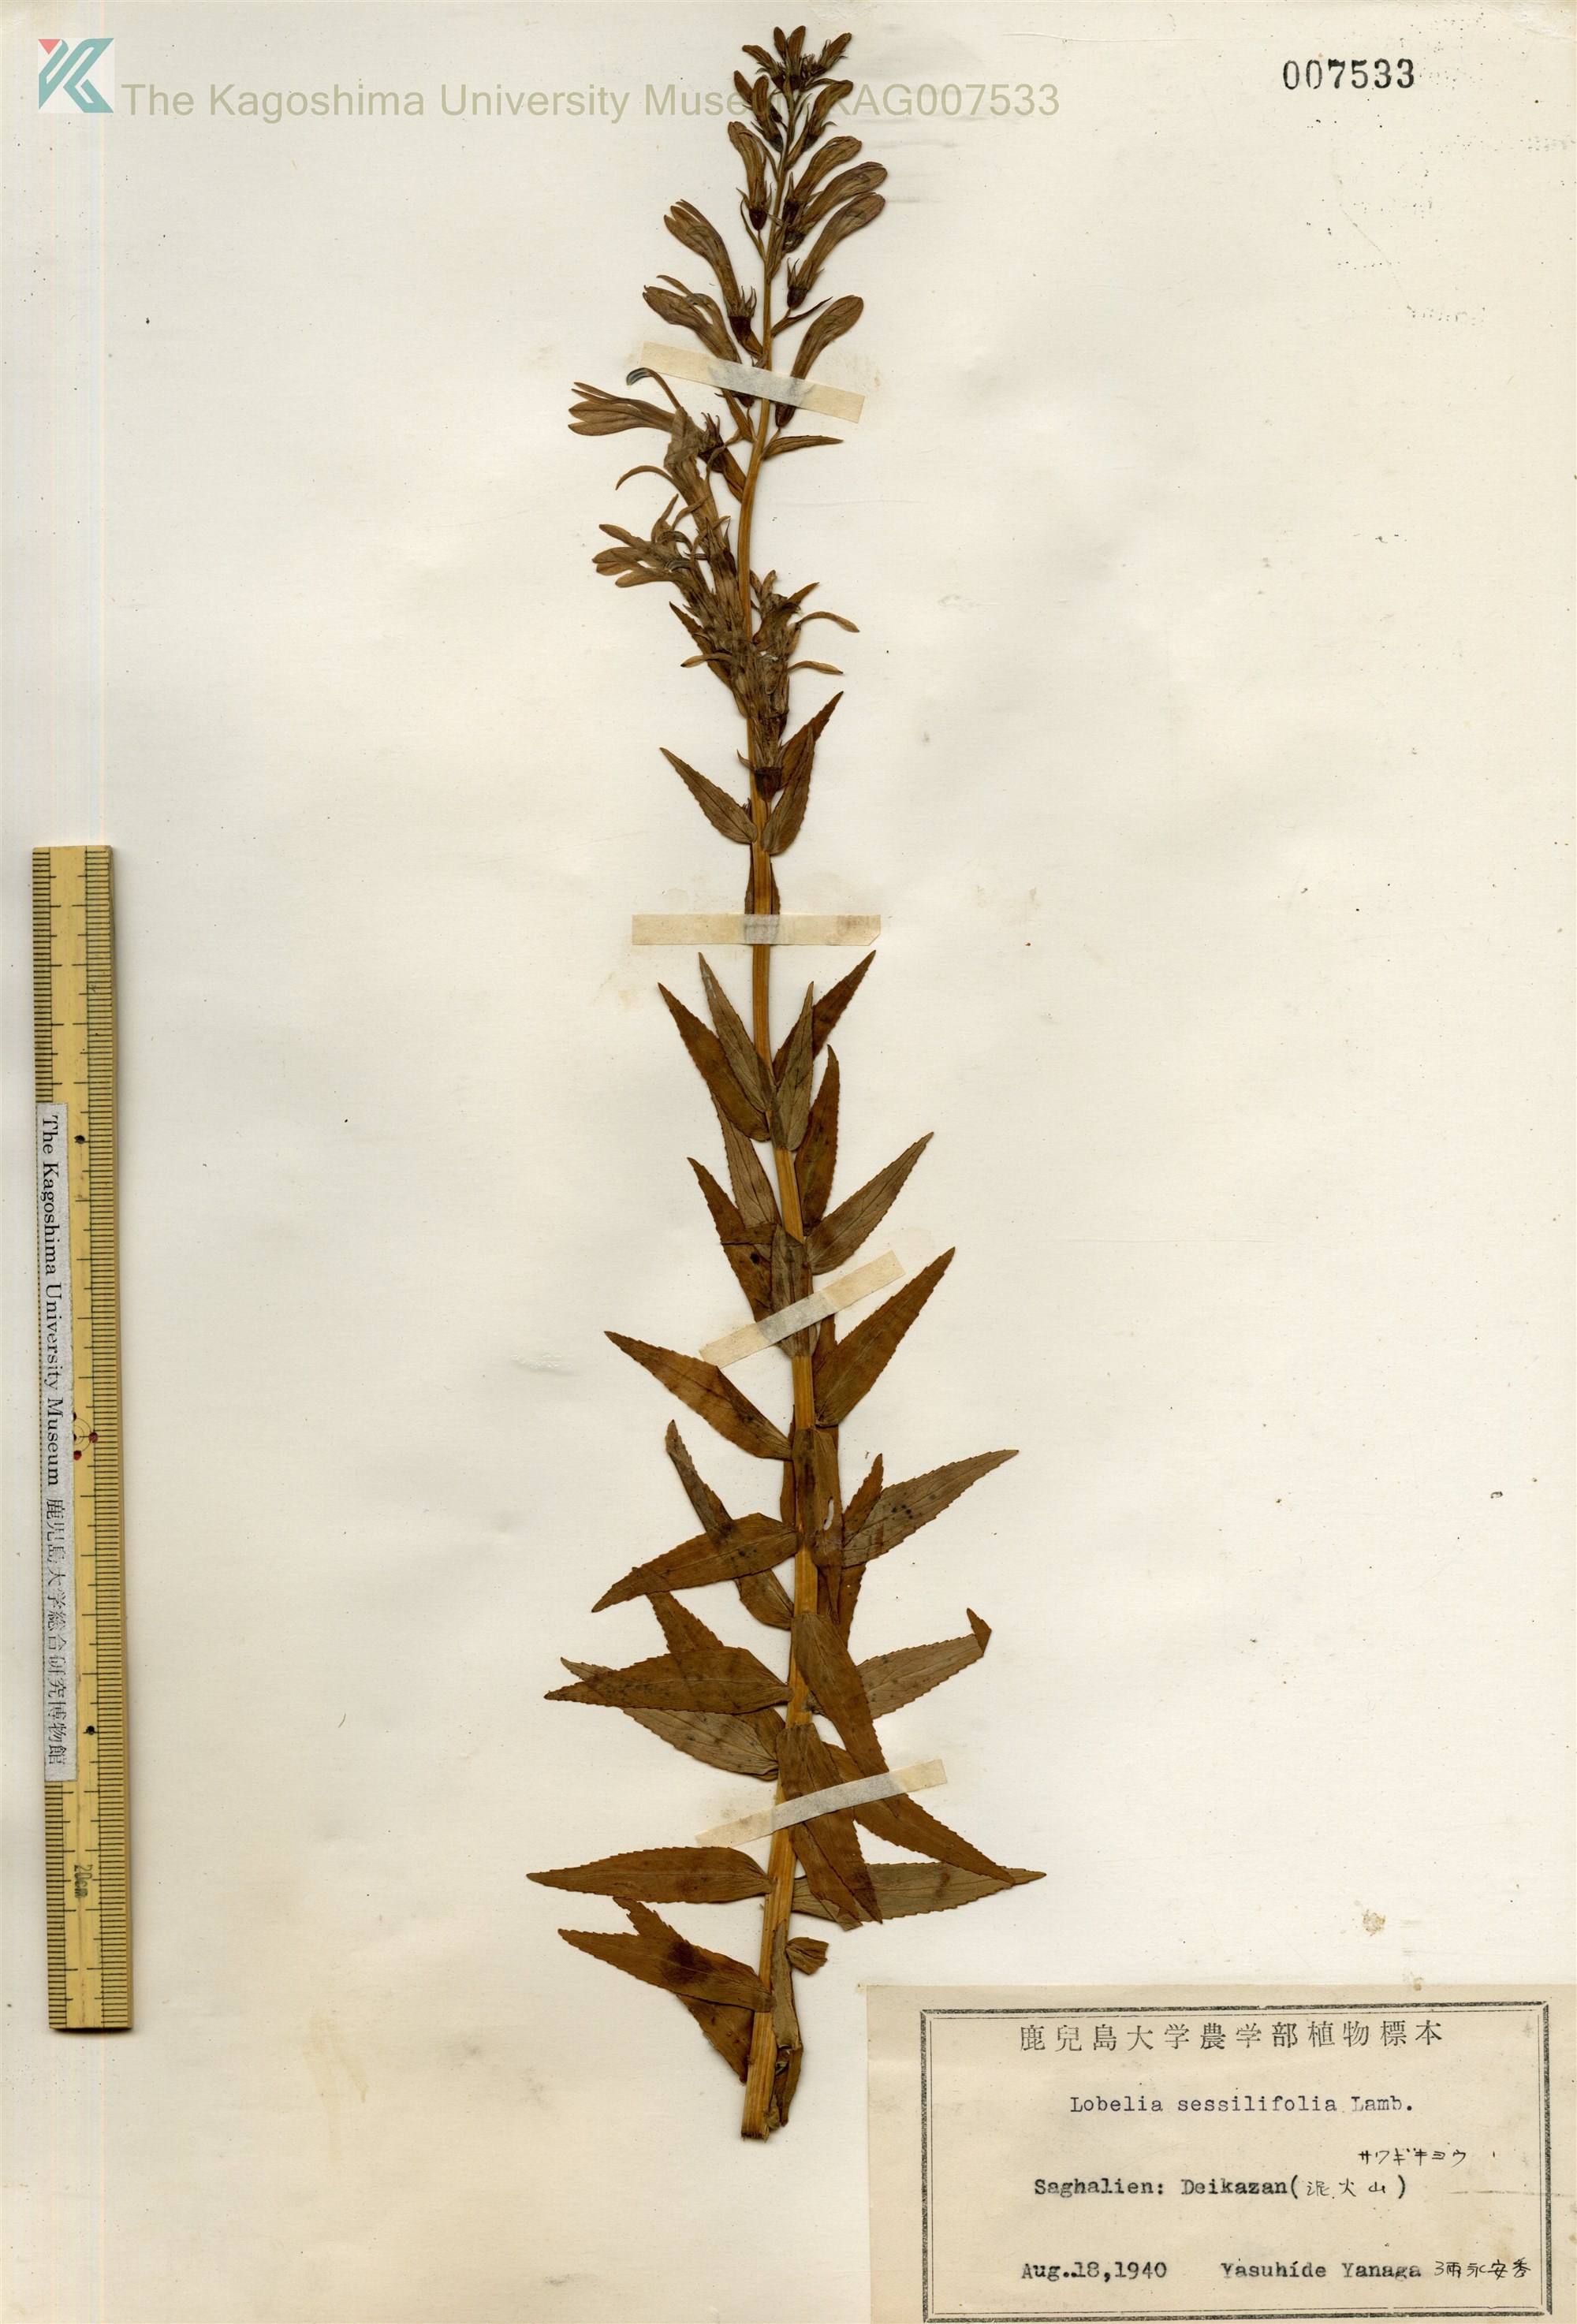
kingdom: Plantae
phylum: Tracheophyta
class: Magnoliopsida
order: Asterales
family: Campanulaceae
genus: Lobelia
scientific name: Lobelia sessilifolia
